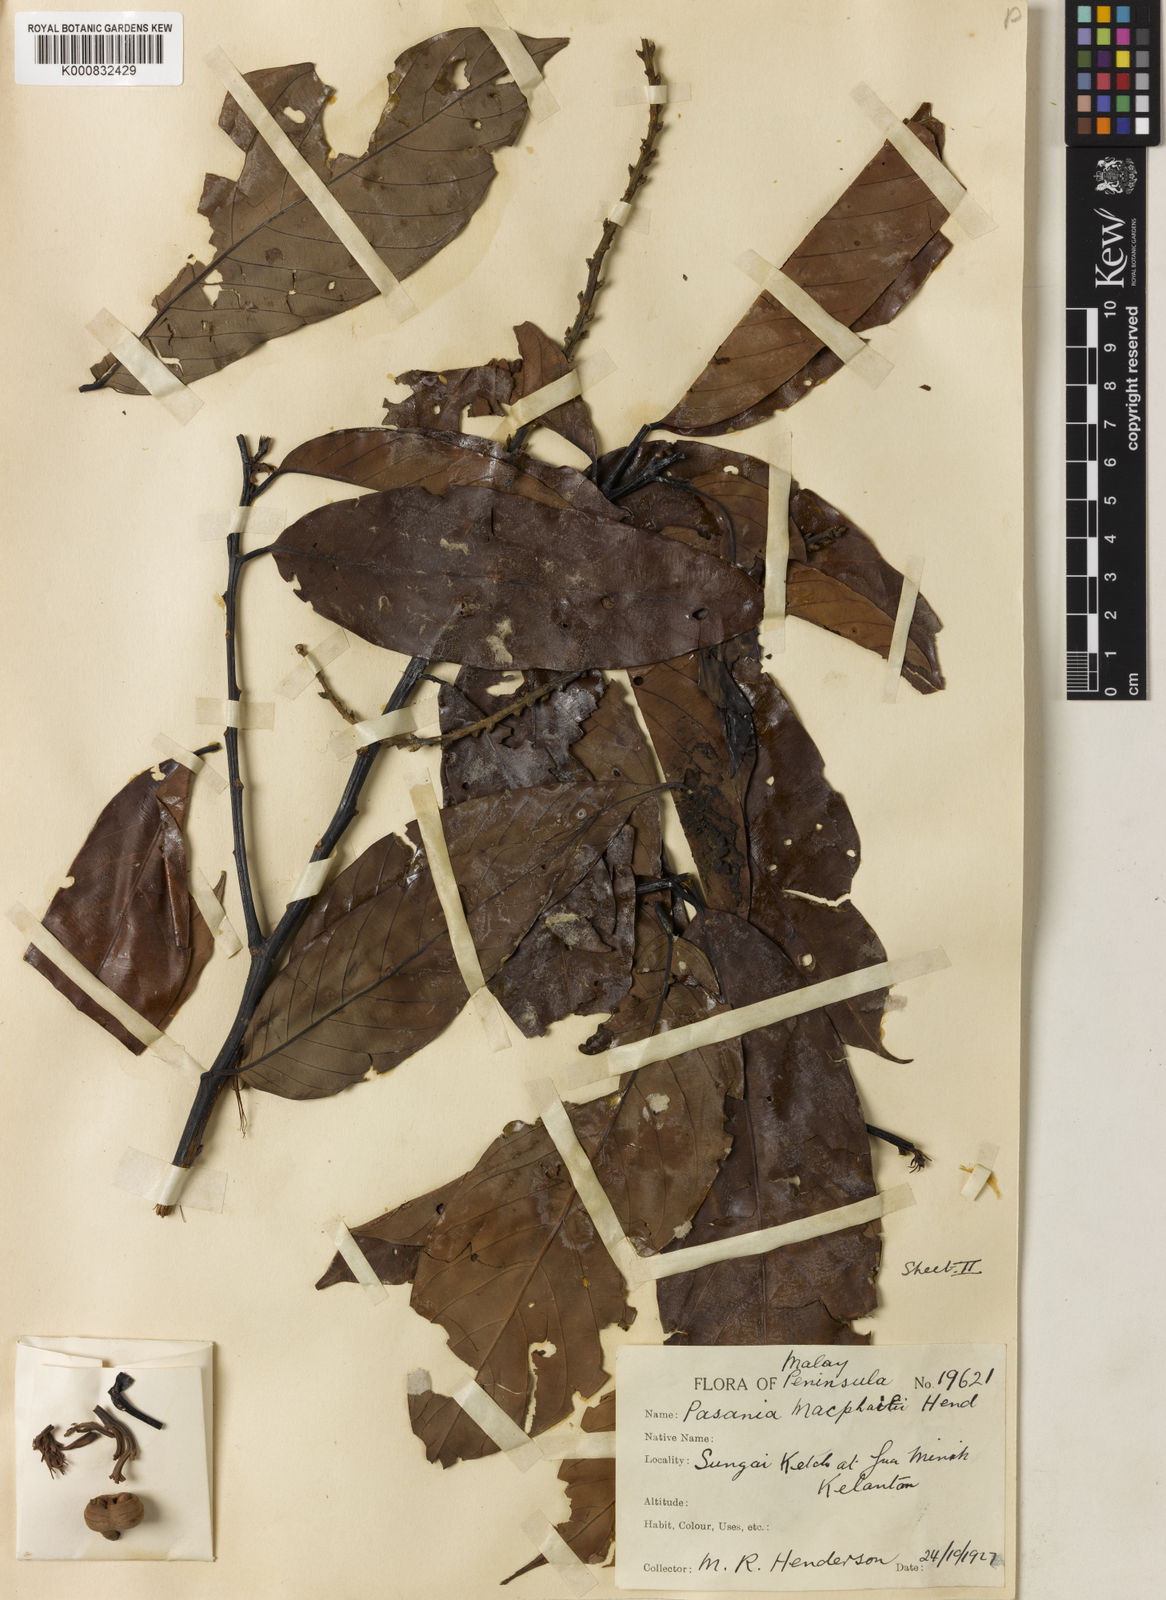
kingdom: Plantae
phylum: Tracheophyta
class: Magnoliopsida
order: Fagales
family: Fagaceae
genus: Lithocarpus
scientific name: Lithocarpus macphailii
